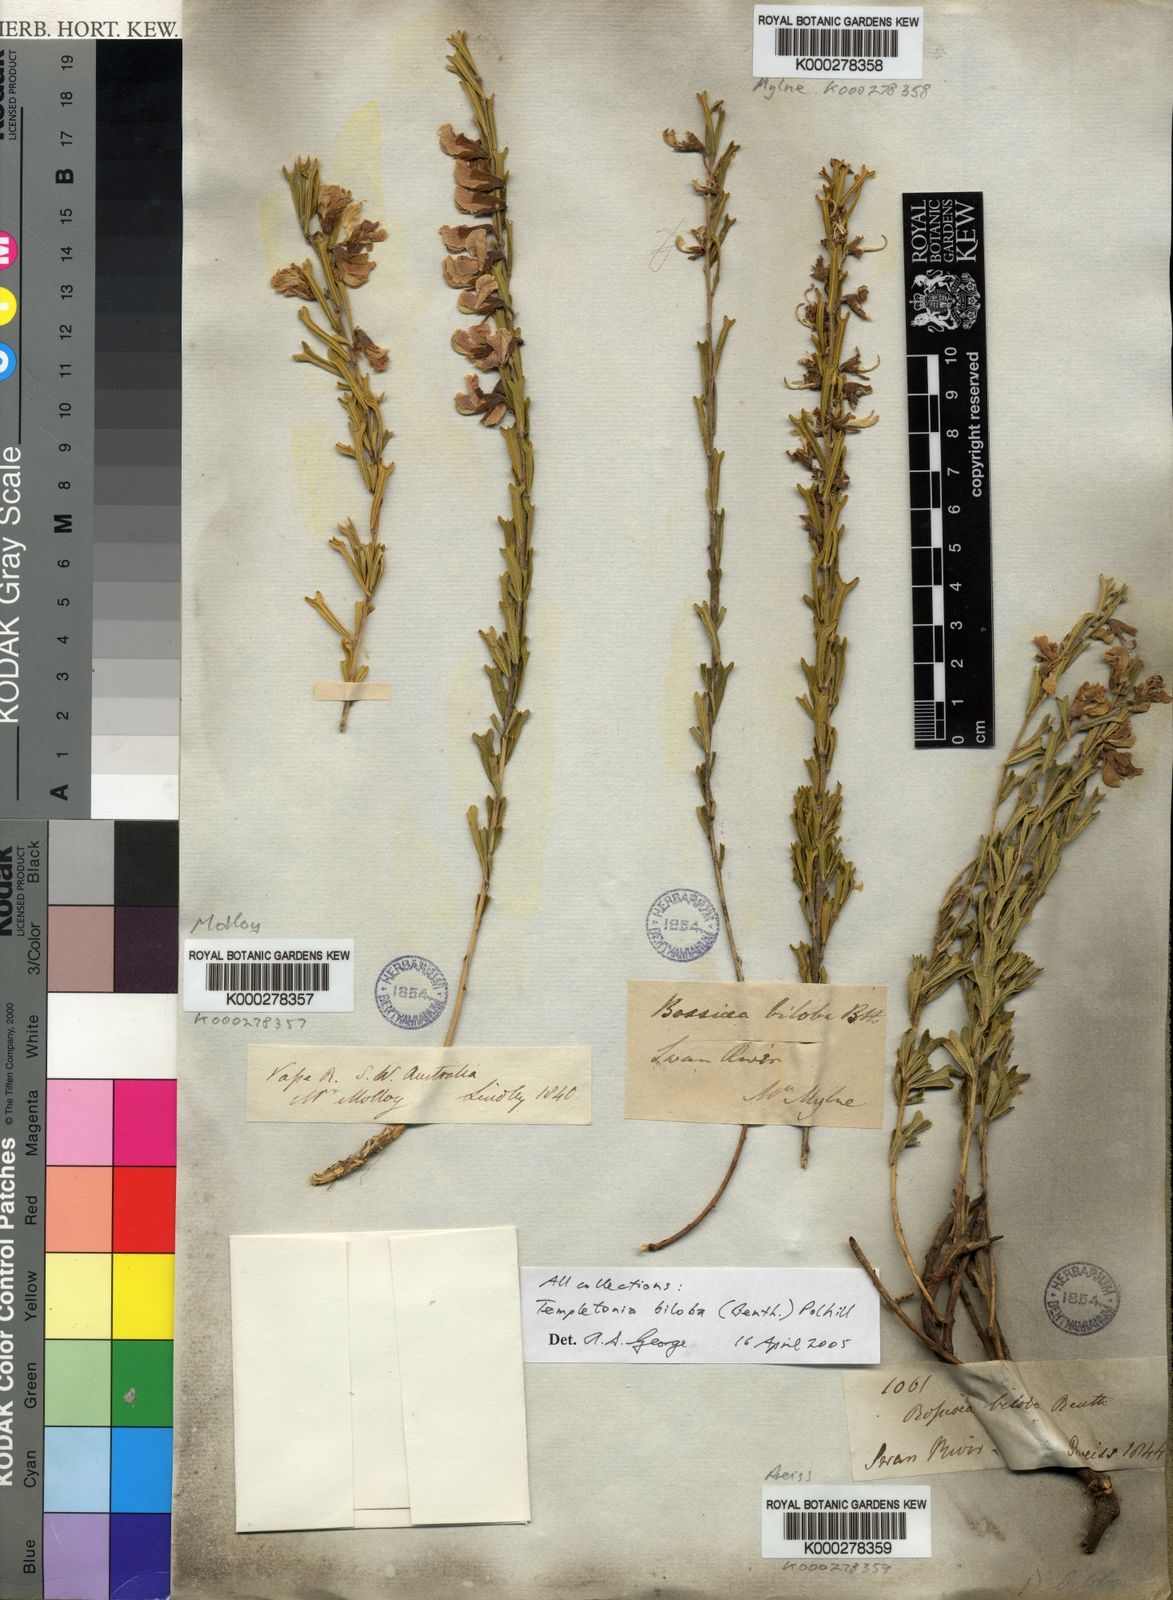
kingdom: Plantae
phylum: Tracheophyta
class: Magnoliopsida
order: Fabales
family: Fabaceae
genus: Cristonia
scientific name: Cristonia biloba
